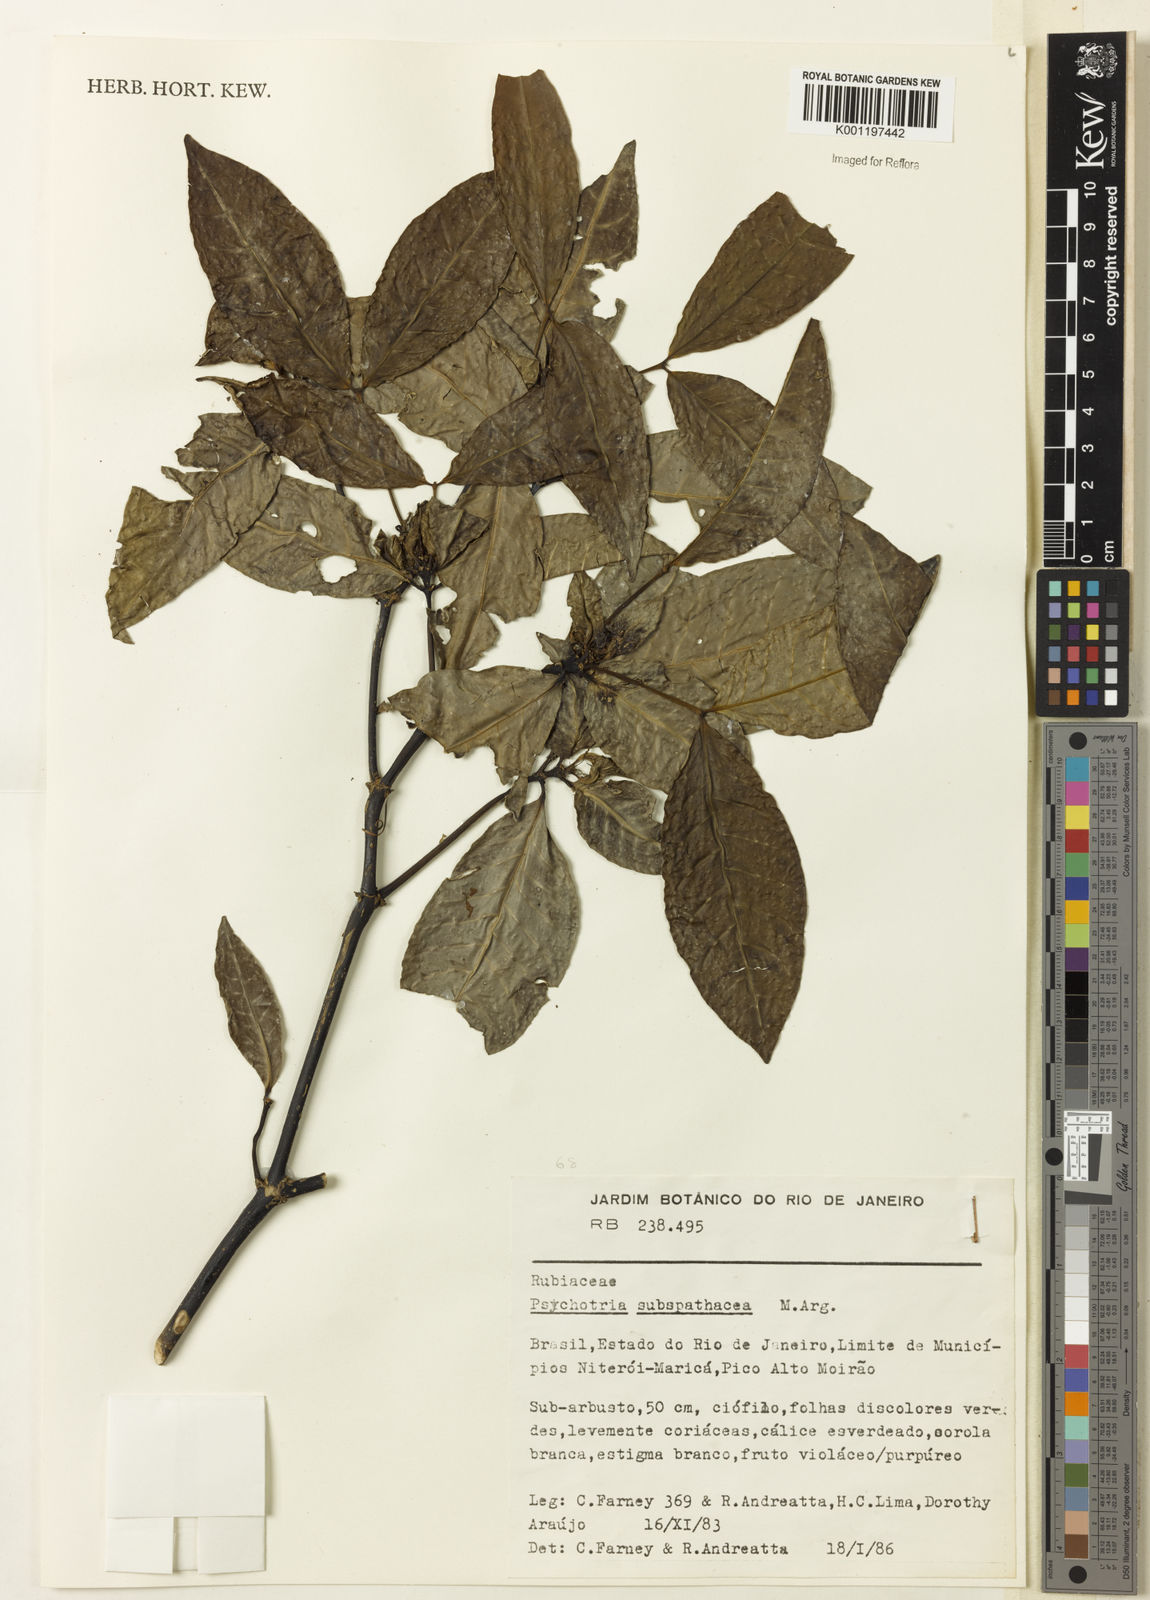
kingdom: Plantae
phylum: Tracheophyta
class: Magnoliopsida
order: Gentianales
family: Rubiaceae
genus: Psychotria
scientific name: Psychotria
